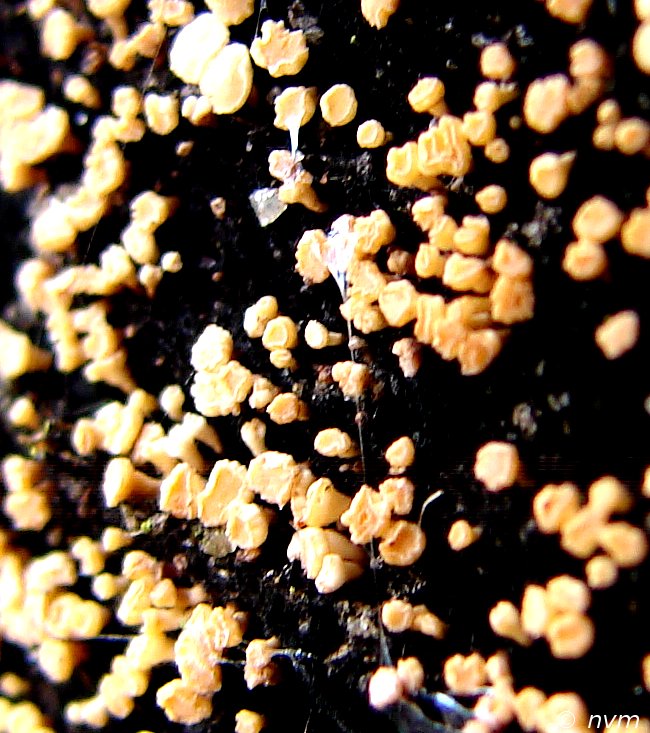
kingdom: Fungi
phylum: Ascomycota
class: Leotiomycetes
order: Helotiales
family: Helotiaceae
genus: Bispora
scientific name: Bispora pallescens
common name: måtte-snitskive
